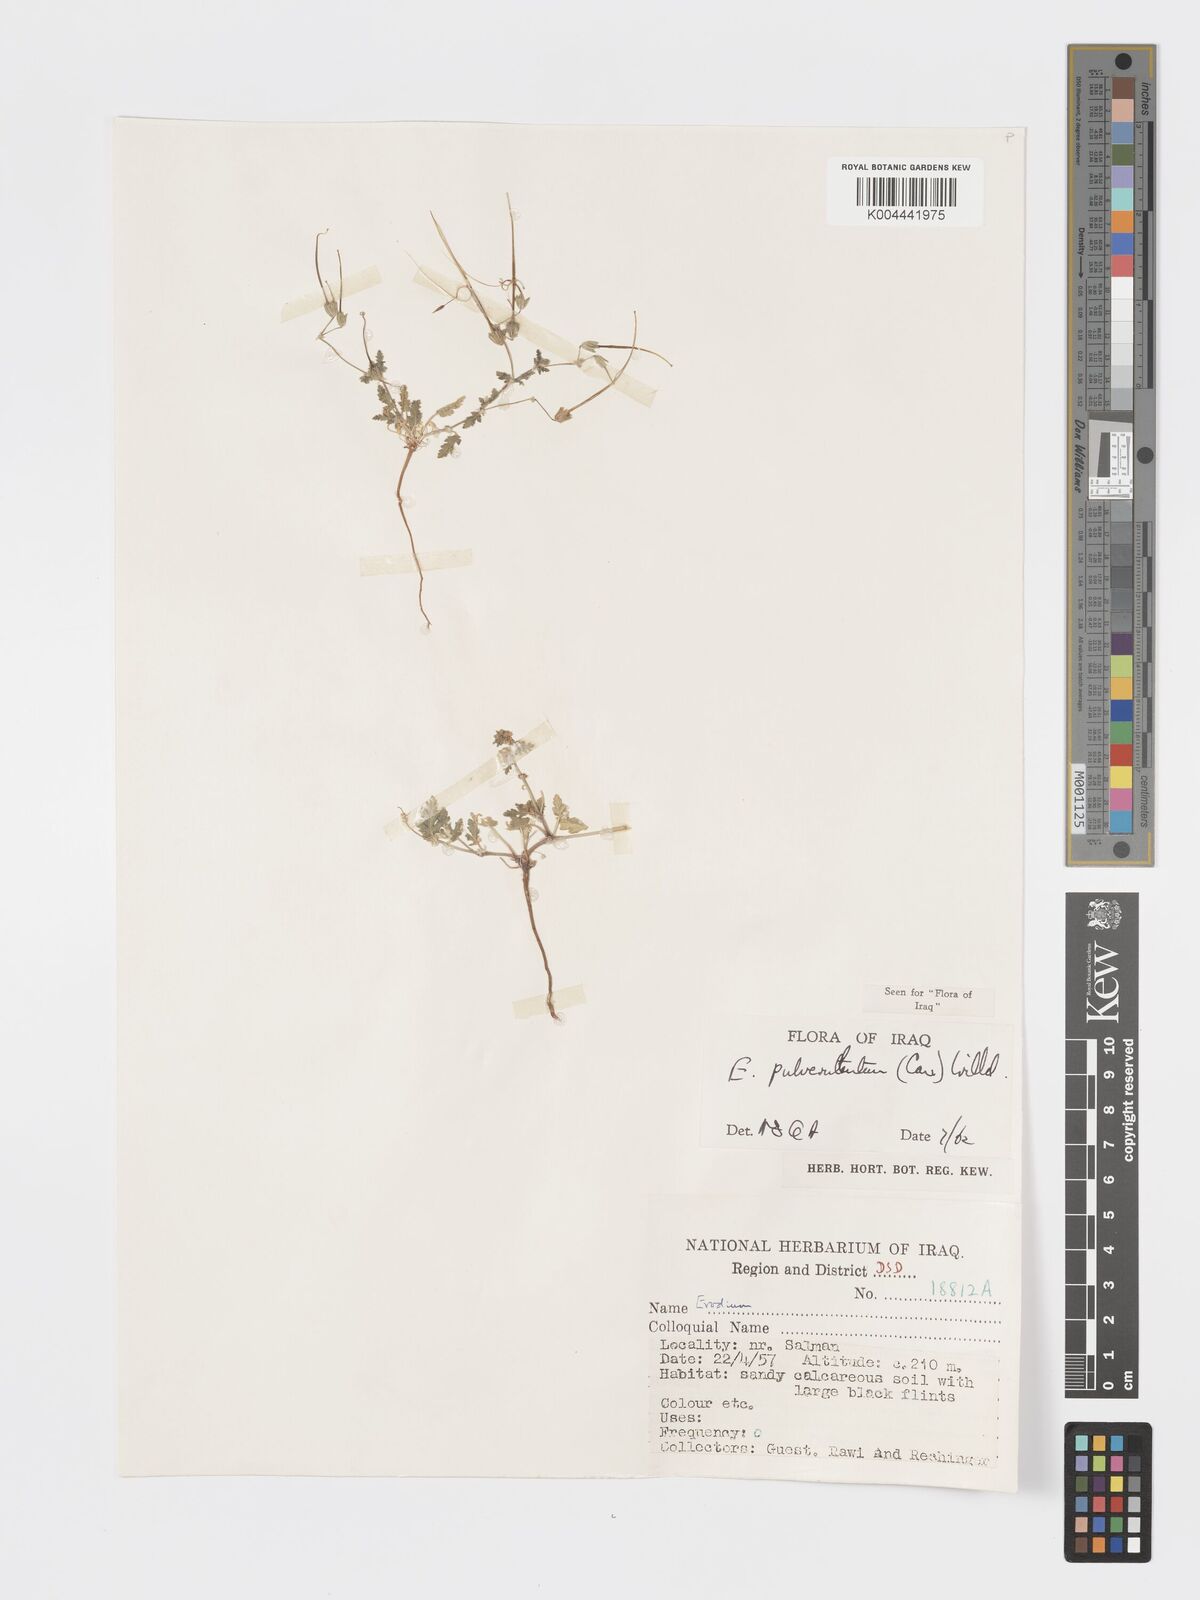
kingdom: Plantae
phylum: Tracheophyta
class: Magnoliopsida
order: Geraniales
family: Geraniaceae
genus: Erodium
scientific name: Erodium laciniatum
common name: Cutleaf stork's bill
